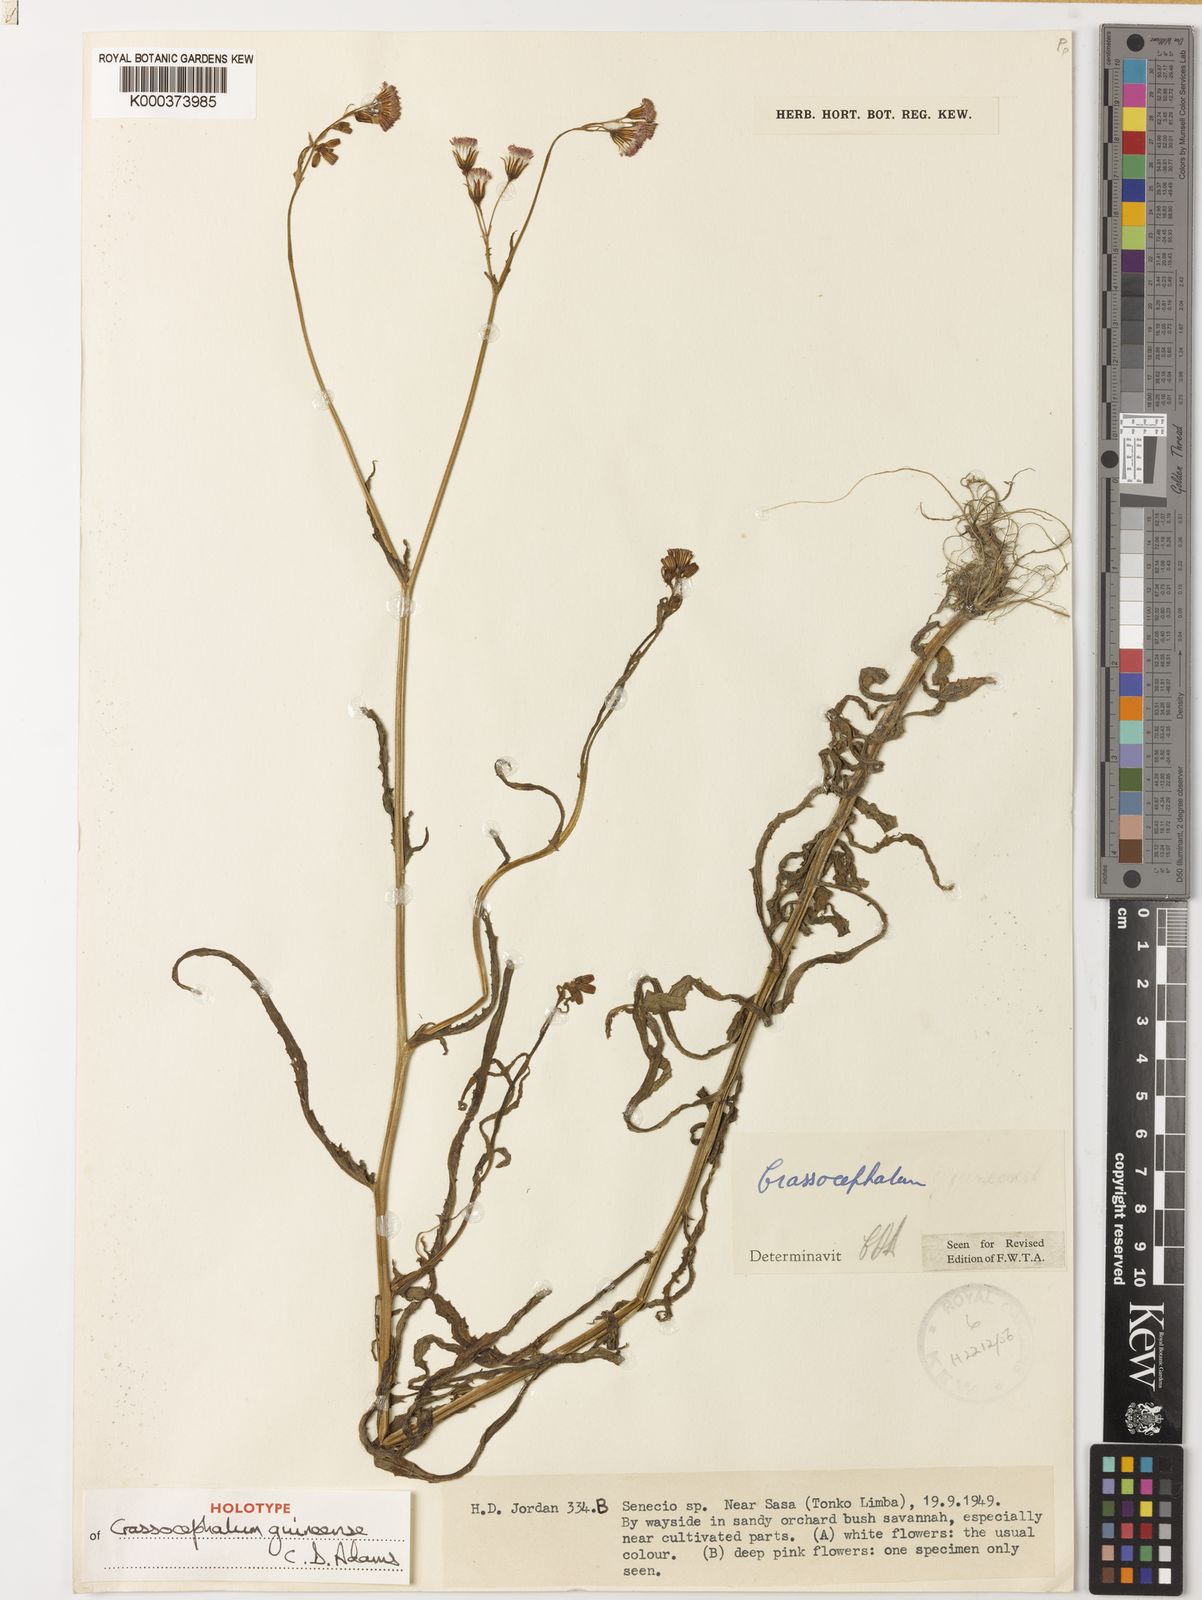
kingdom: Plantae
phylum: Tracheophyta
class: Magnoliopsida
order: Asterales
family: Asteraceae
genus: Crassocephalum
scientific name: Crassocephalum guineense
